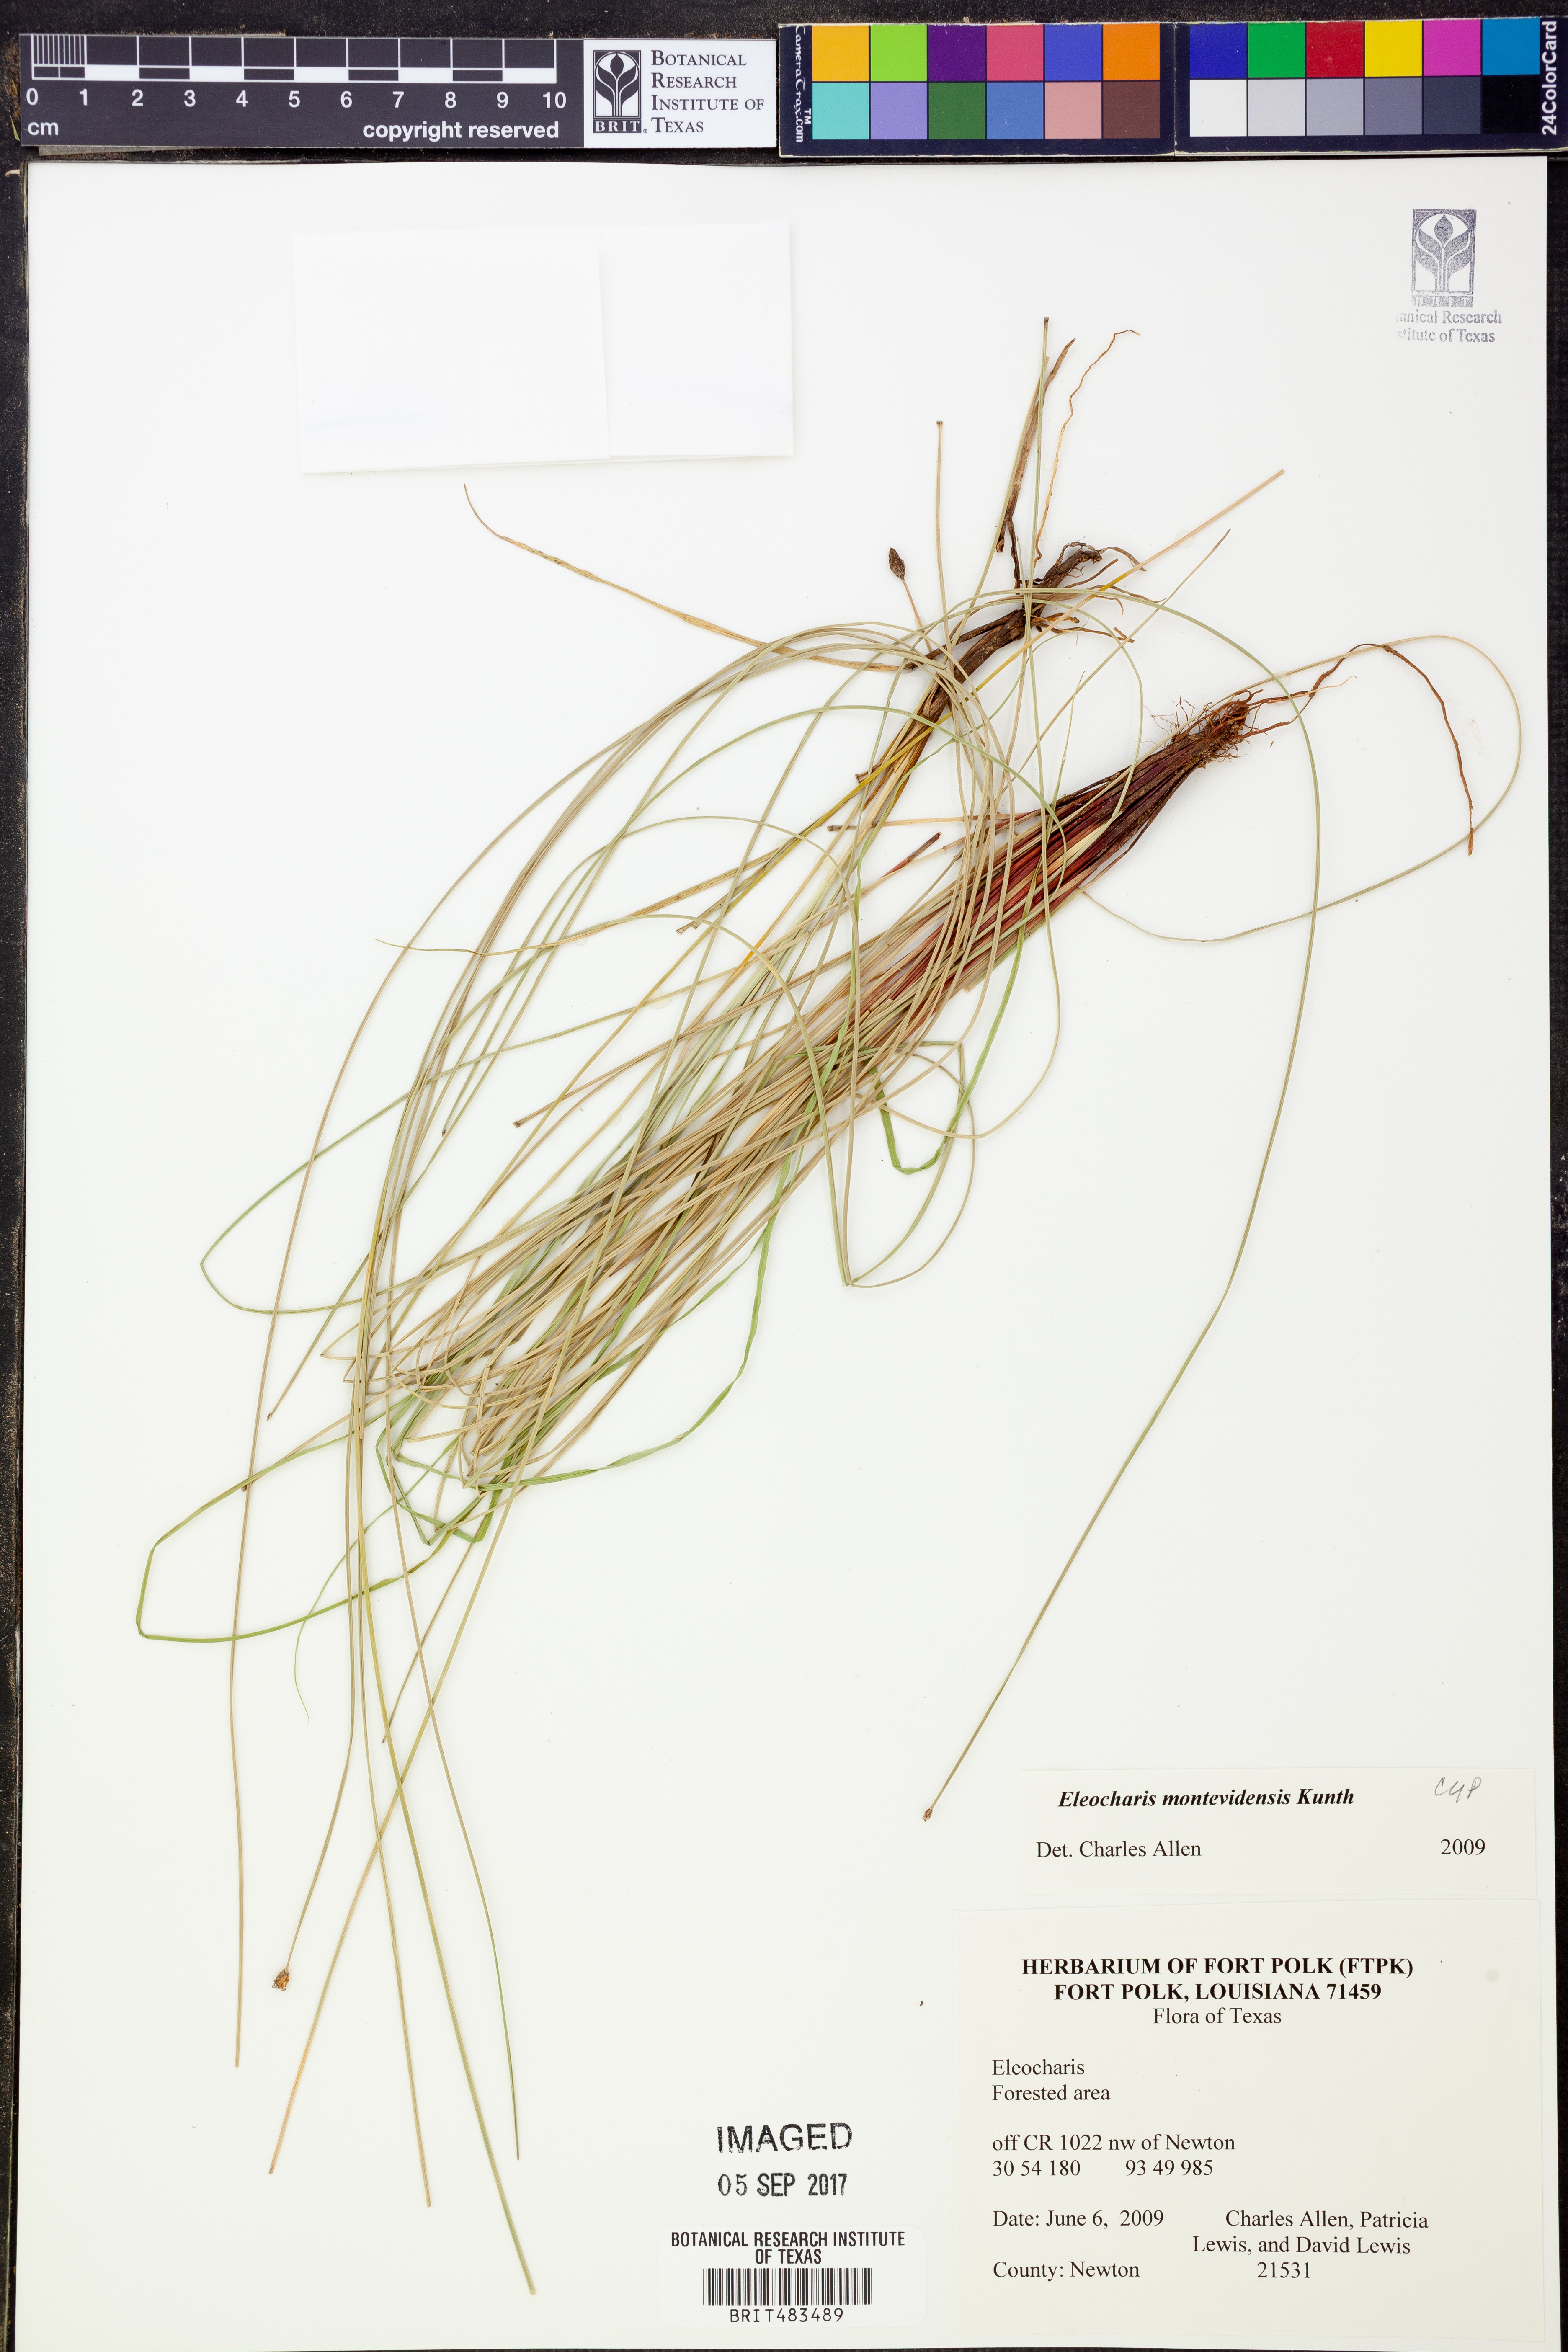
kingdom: Plantae
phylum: Tracheophyta
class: Liliopsida
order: Poales
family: Cyperaceae
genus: Eleocharis
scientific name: Eleocharis montevidensis
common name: Sand spike-rush
